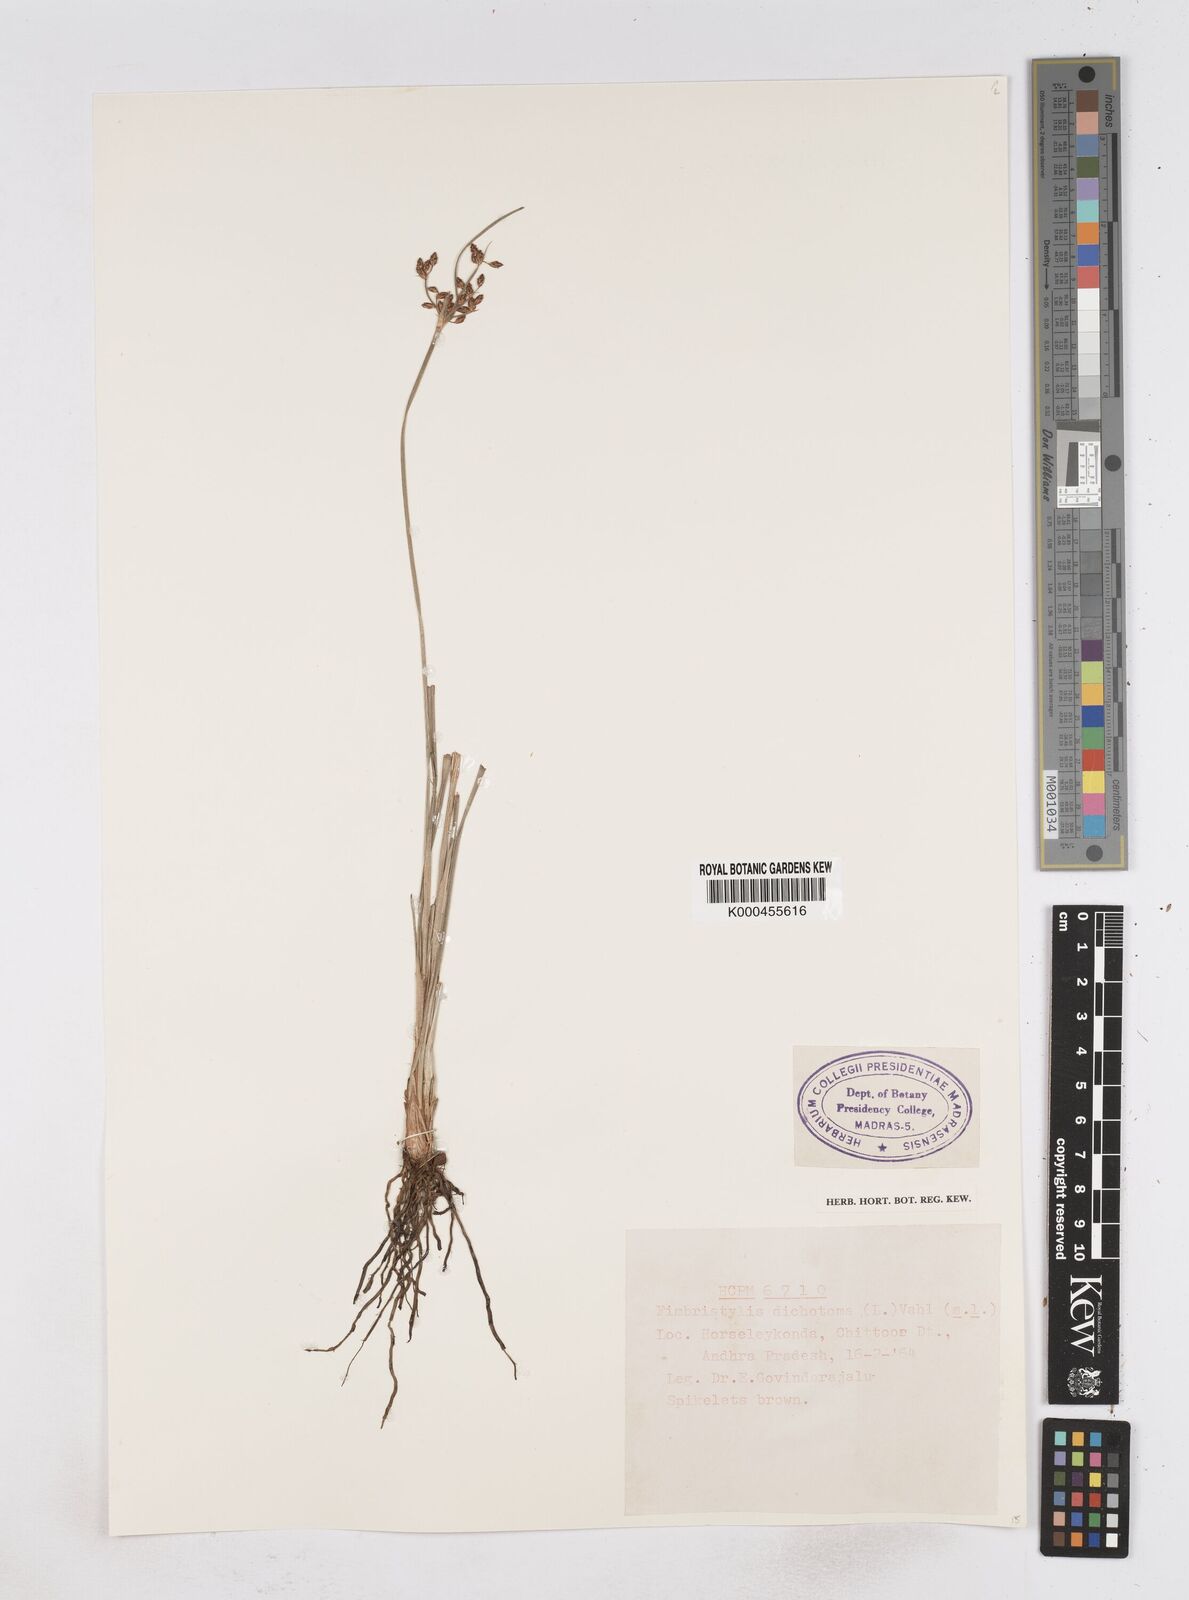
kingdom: Plantae
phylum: Tracheophyta
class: Liliopsida
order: Poales
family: Cyperaceae
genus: Fimbristylis
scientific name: Fimbristylis dichotoma
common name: Forked fimbry
